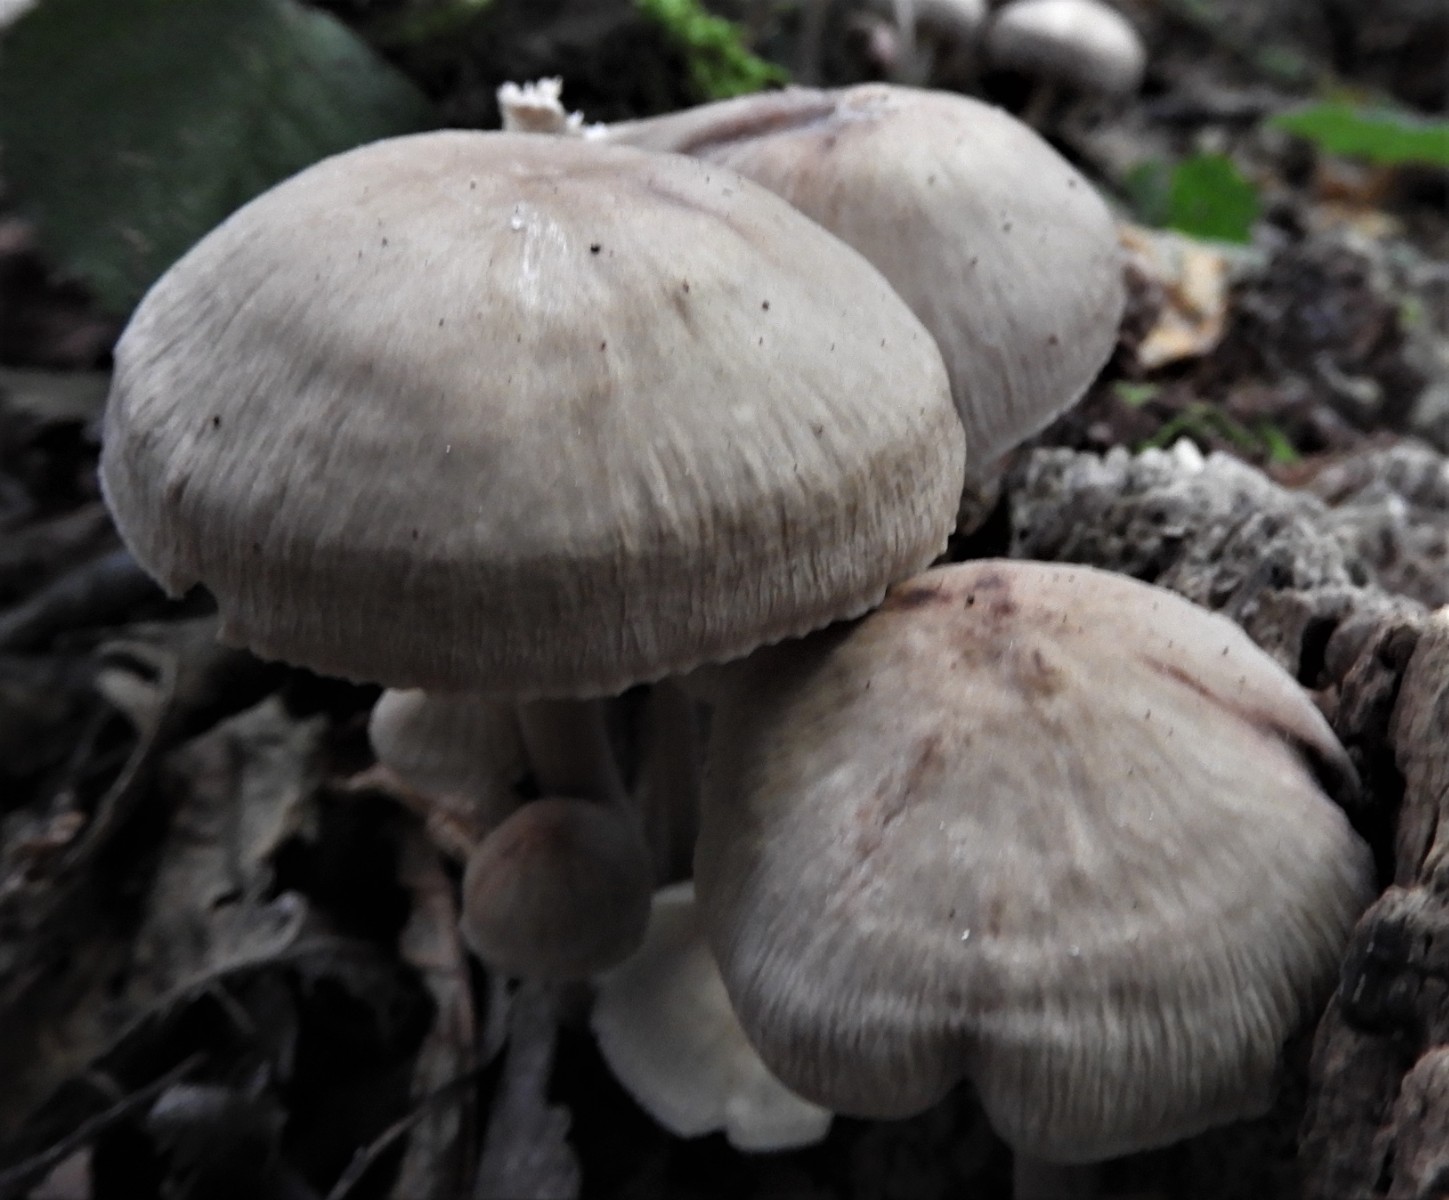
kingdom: Fungi
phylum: Basidiomycota
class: Agaricomycetes
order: Agaricales
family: Mycenaceae
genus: Mycena
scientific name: Mycena galericulata
